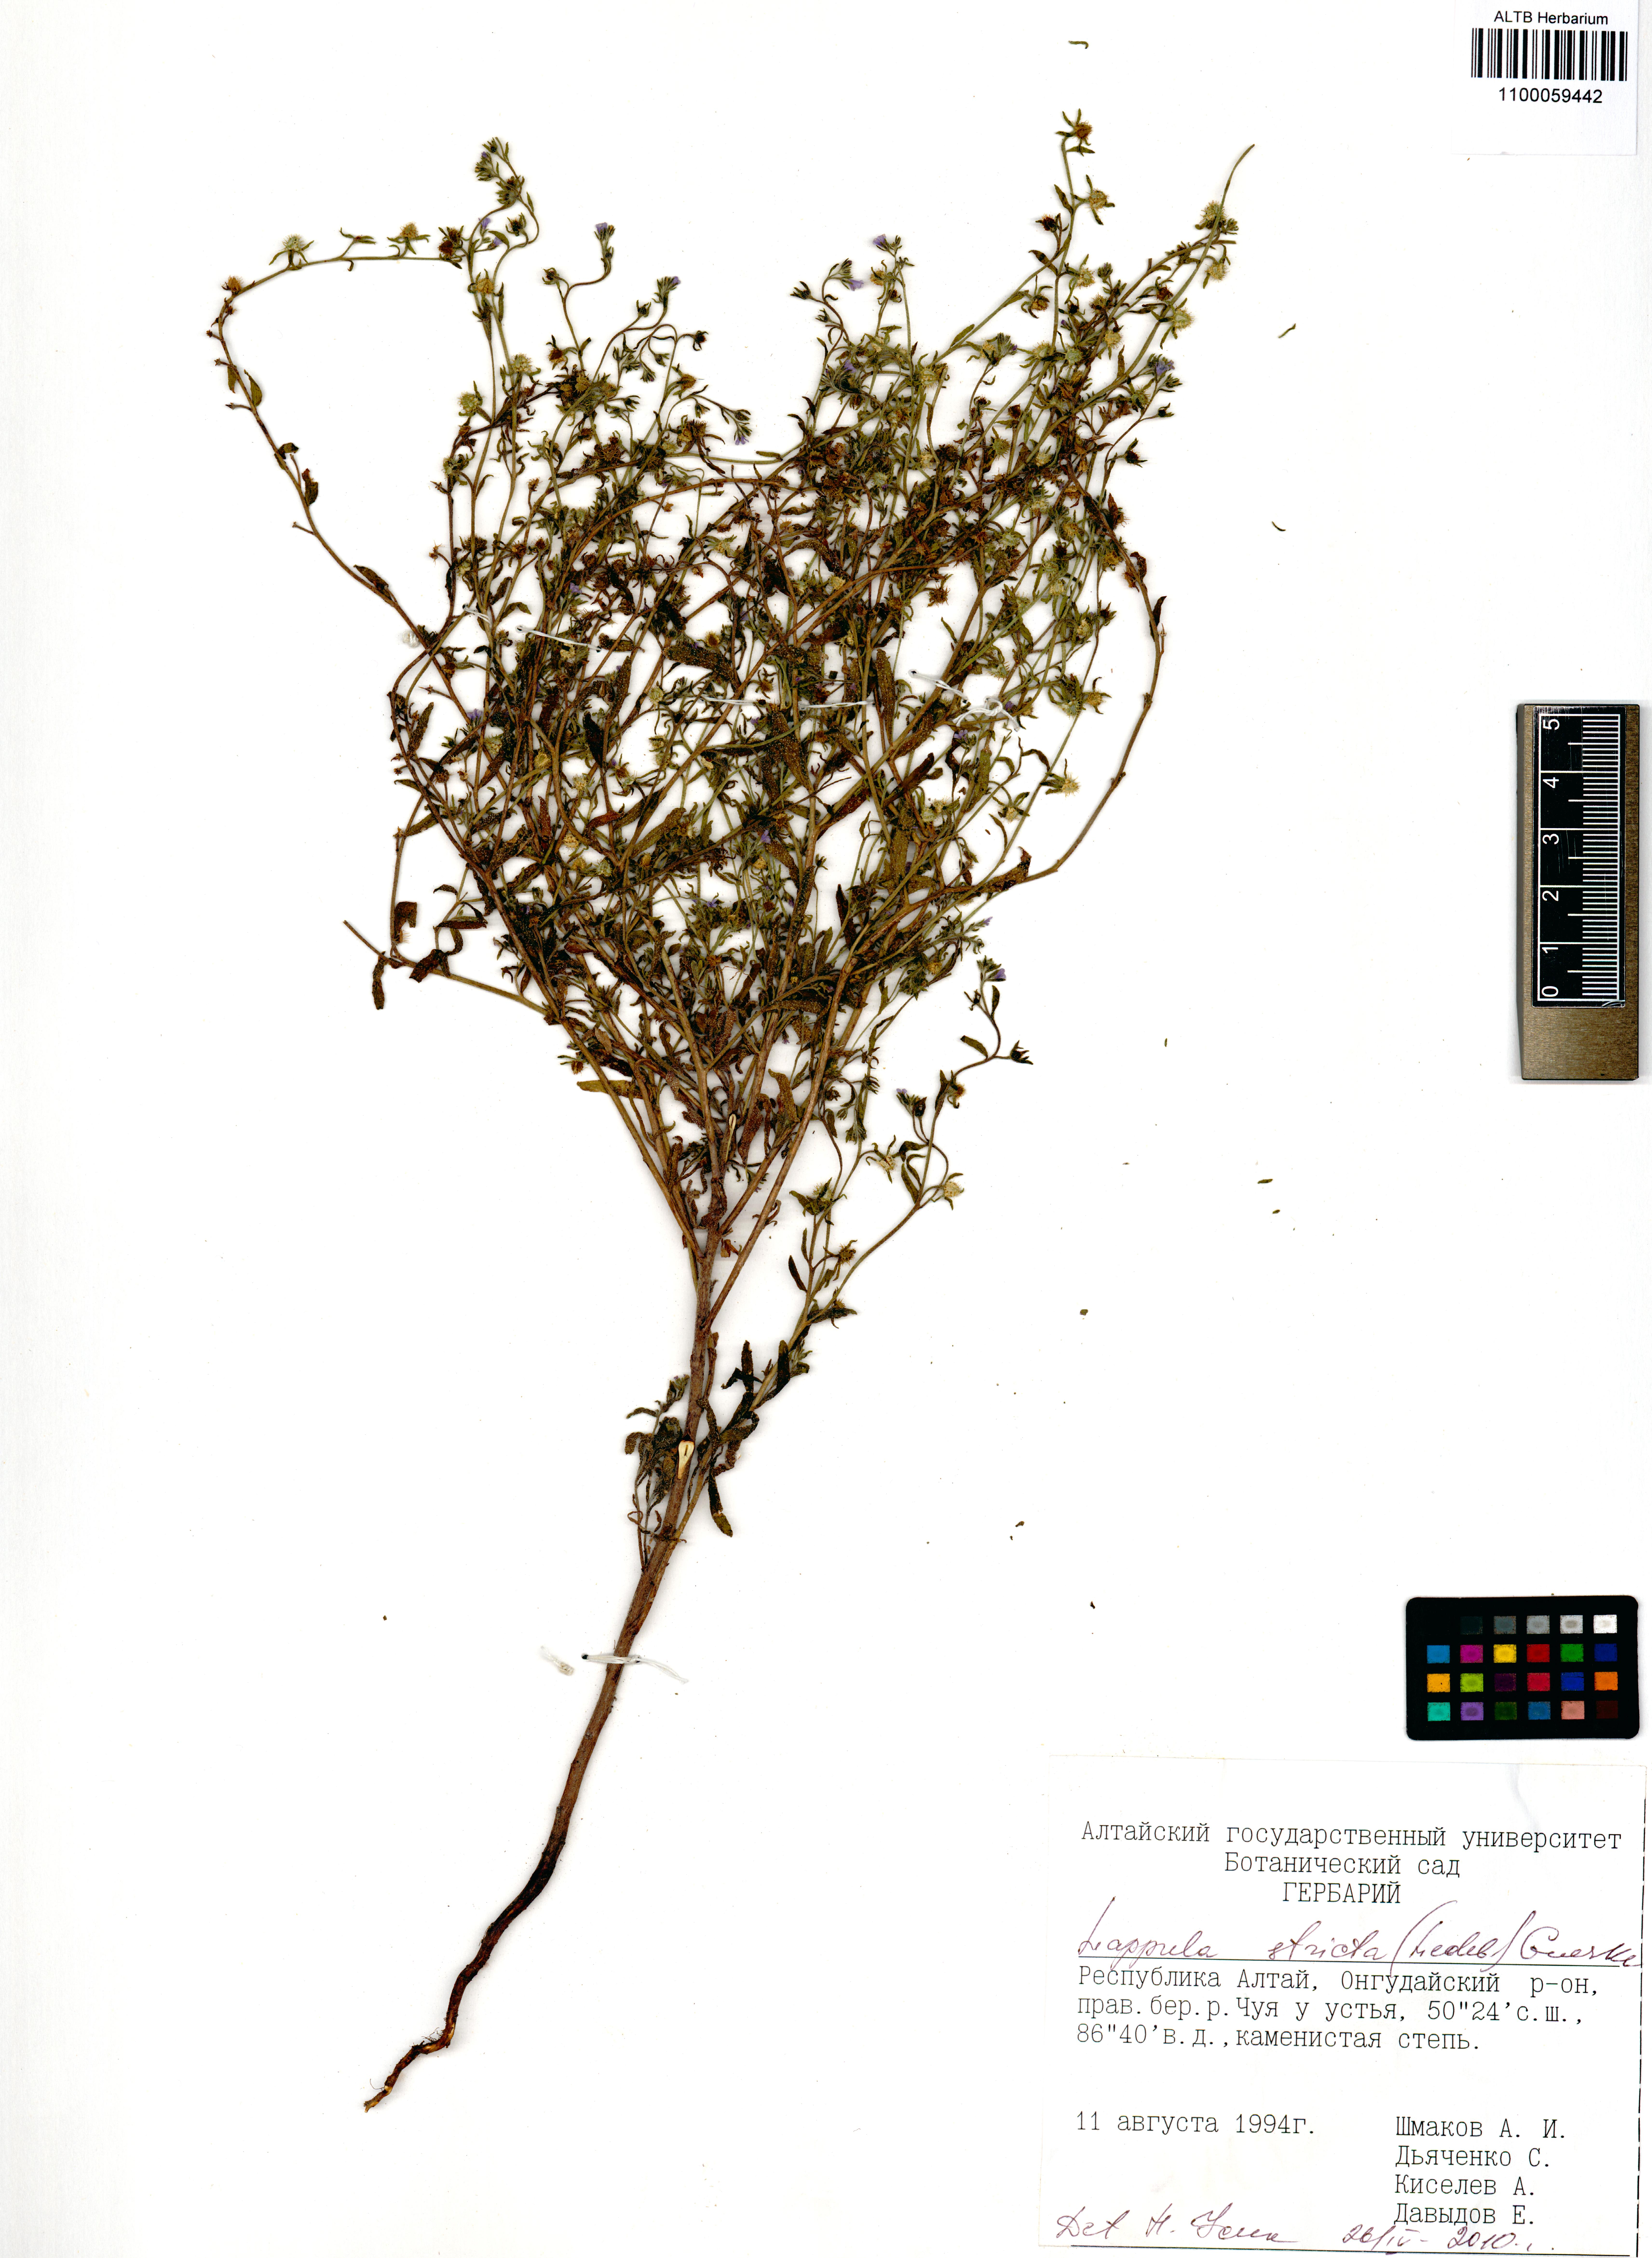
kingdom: Plantae
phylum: Tracheophyta
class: Magnoliopsida
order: Boraginales
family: Boraginaceae
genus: Lappula
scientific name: Lappula stricta
